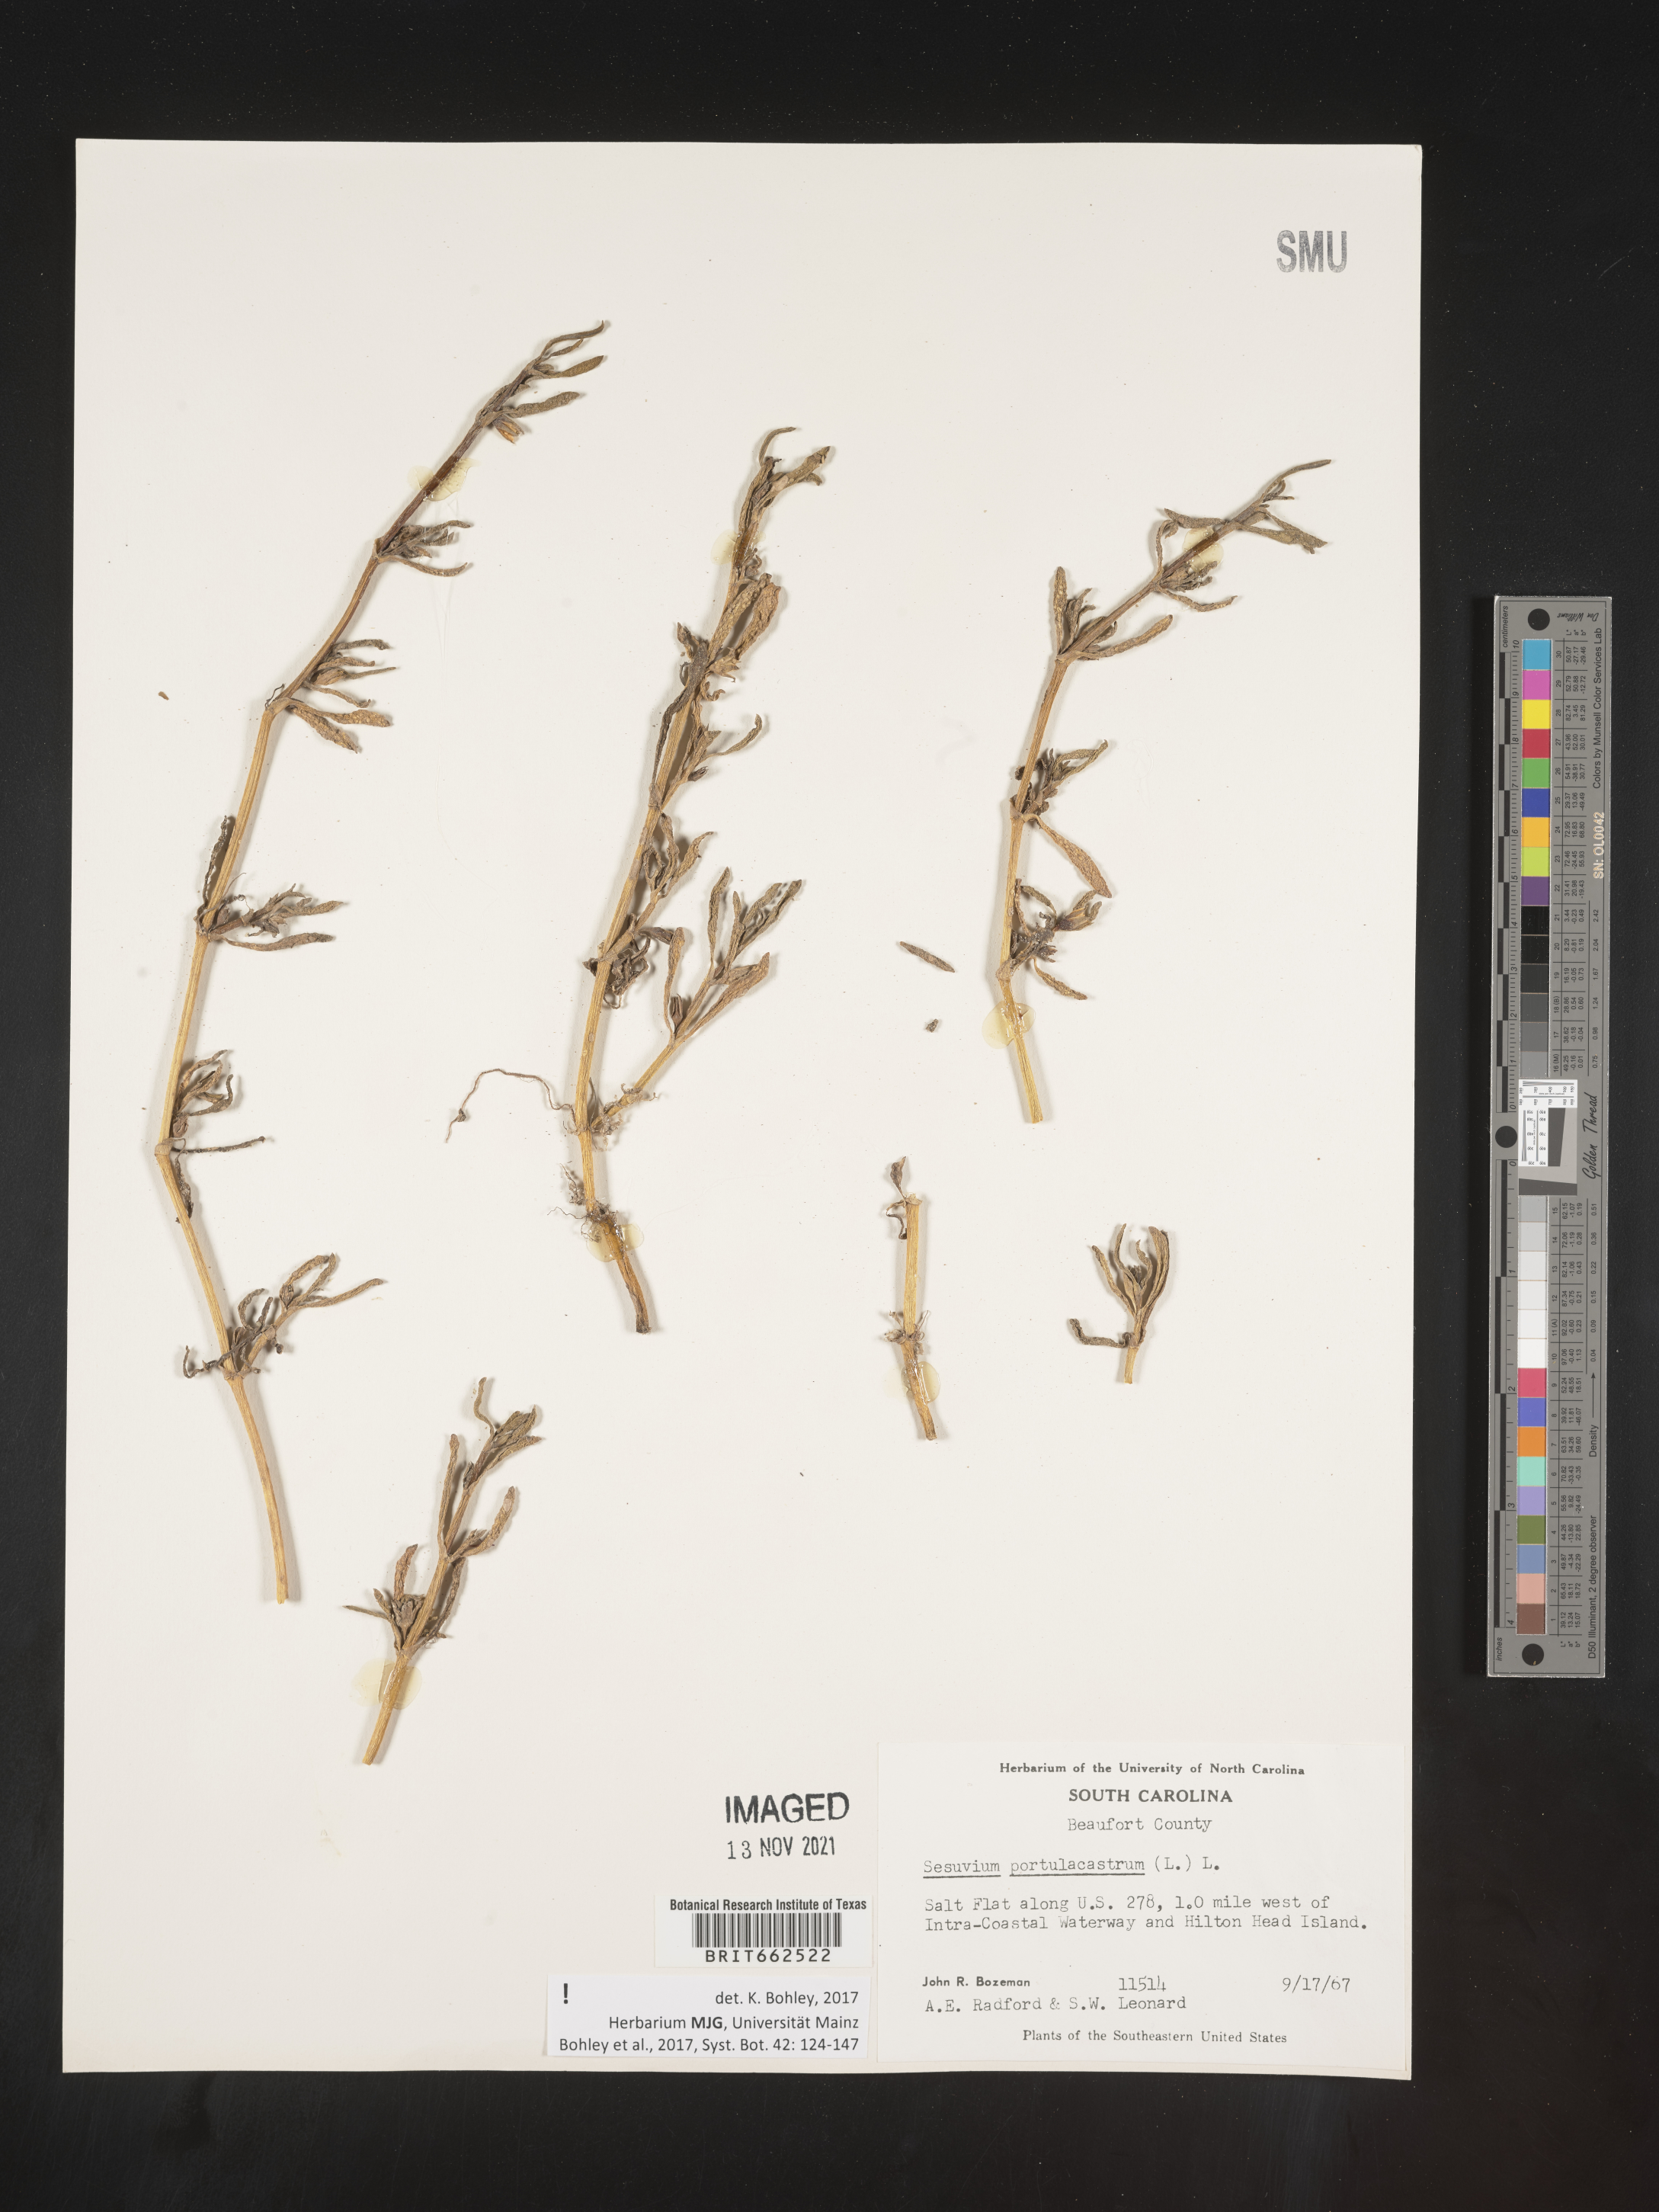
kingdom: Plantae
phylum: Tracheophyta
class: Magnoliopsida
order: Caryophyllales
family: Aizoaceae
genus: Sesuvium
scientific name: Sesuvium portulacastrum
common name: Sea-purslane
